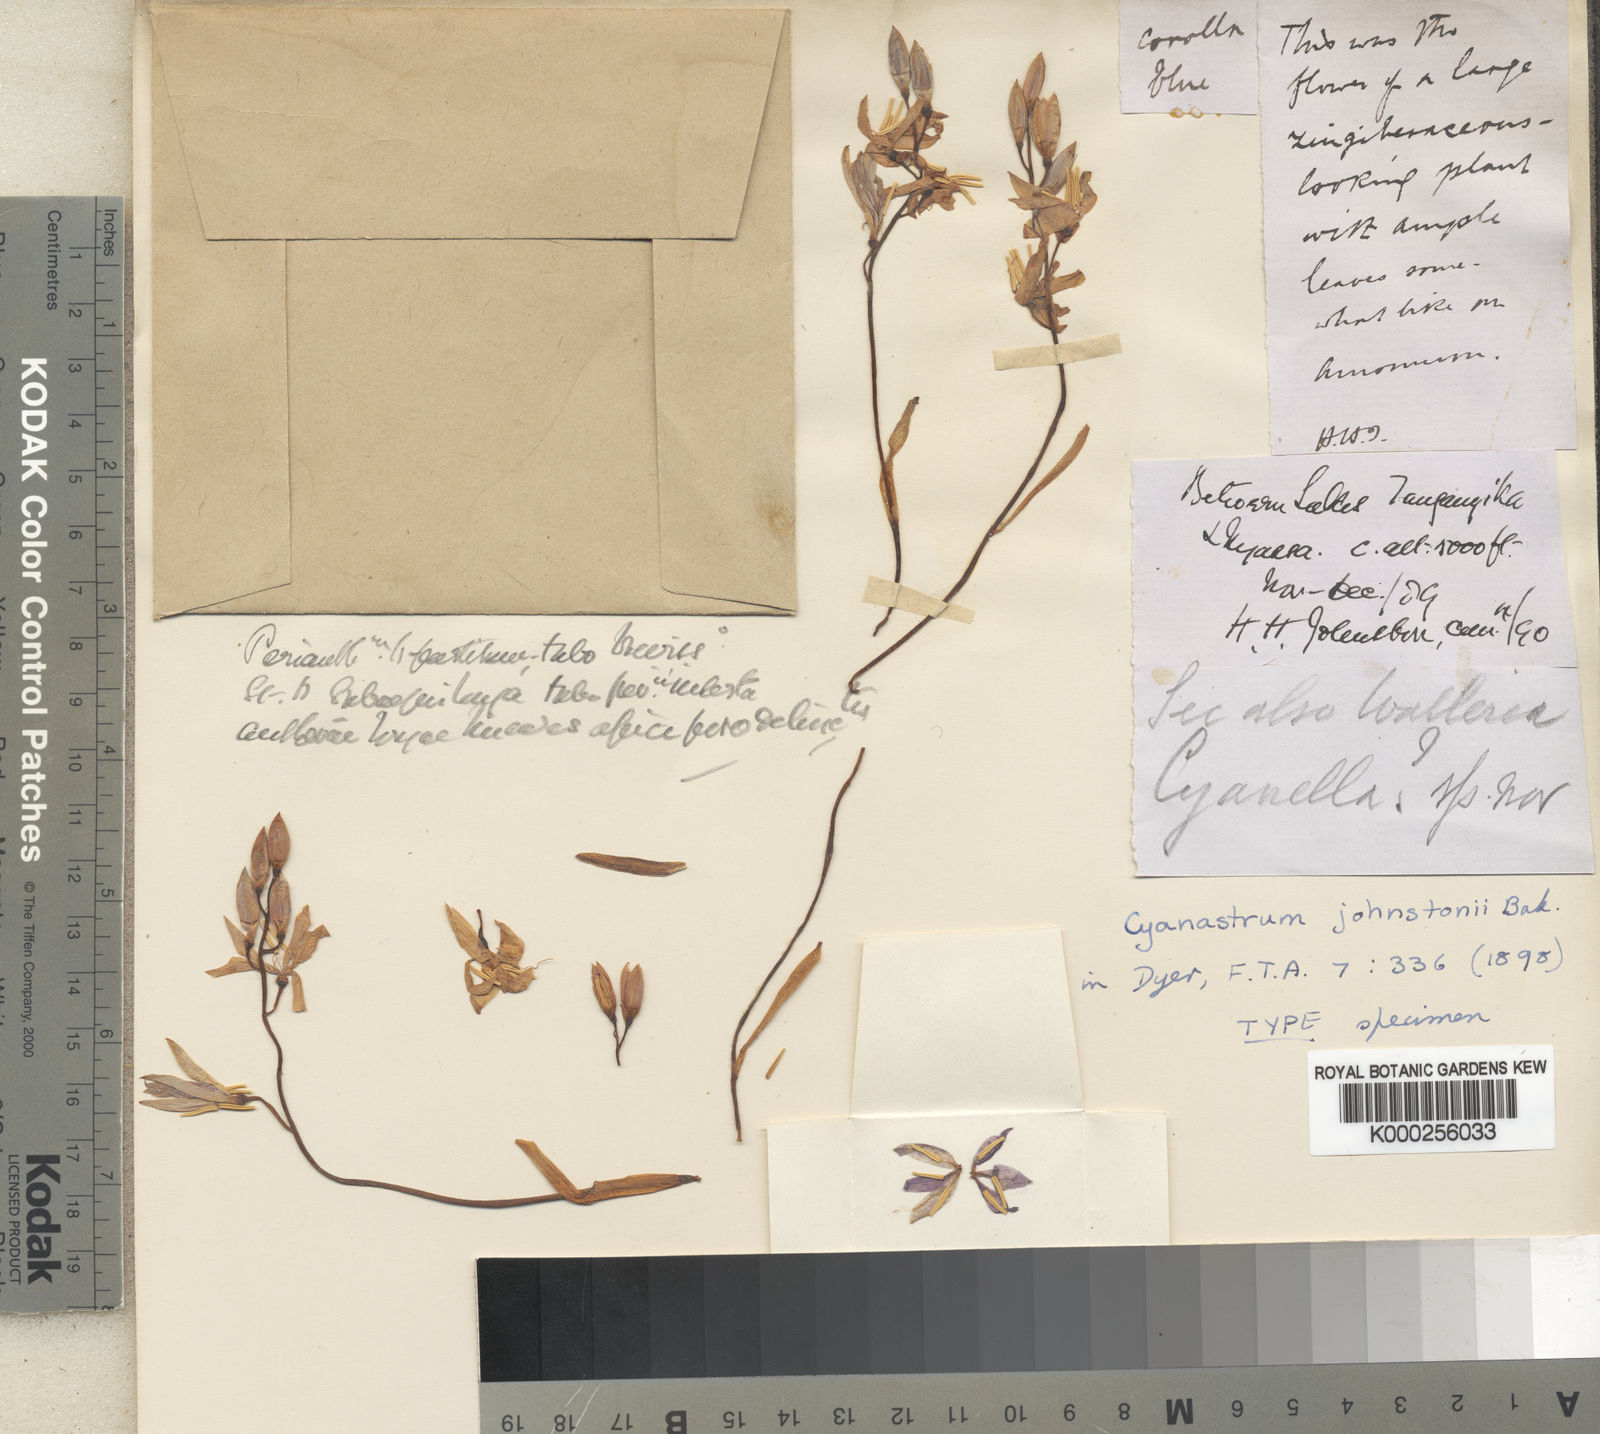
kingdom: Plantae
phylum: Tracheophyta
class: Liliopsida
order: Asparagales
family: Tecophilaeaceae
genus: Cyanastrum
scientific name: Cyanastrum johnstonii
